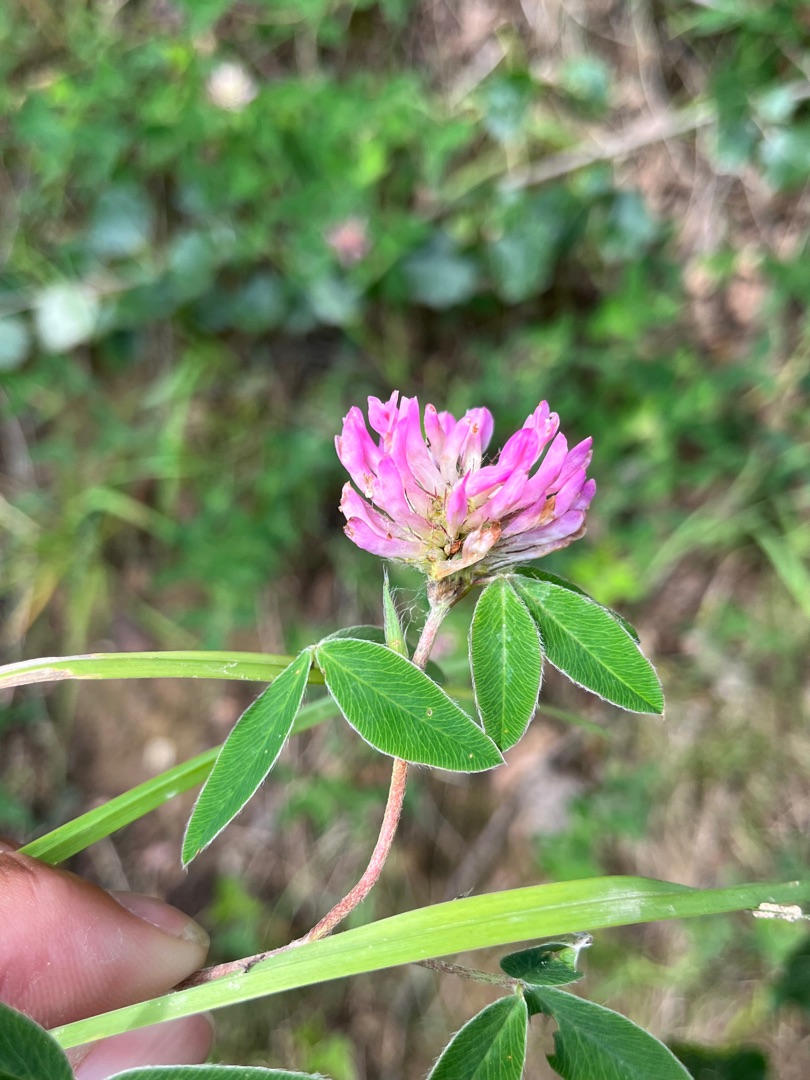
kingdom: Plantae
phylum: Tracheophyta
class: Magnoliopsida
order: Fabales
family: Fabaceae
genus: Trifolium
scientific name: Trifolium medium
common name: Bugtet kløver
